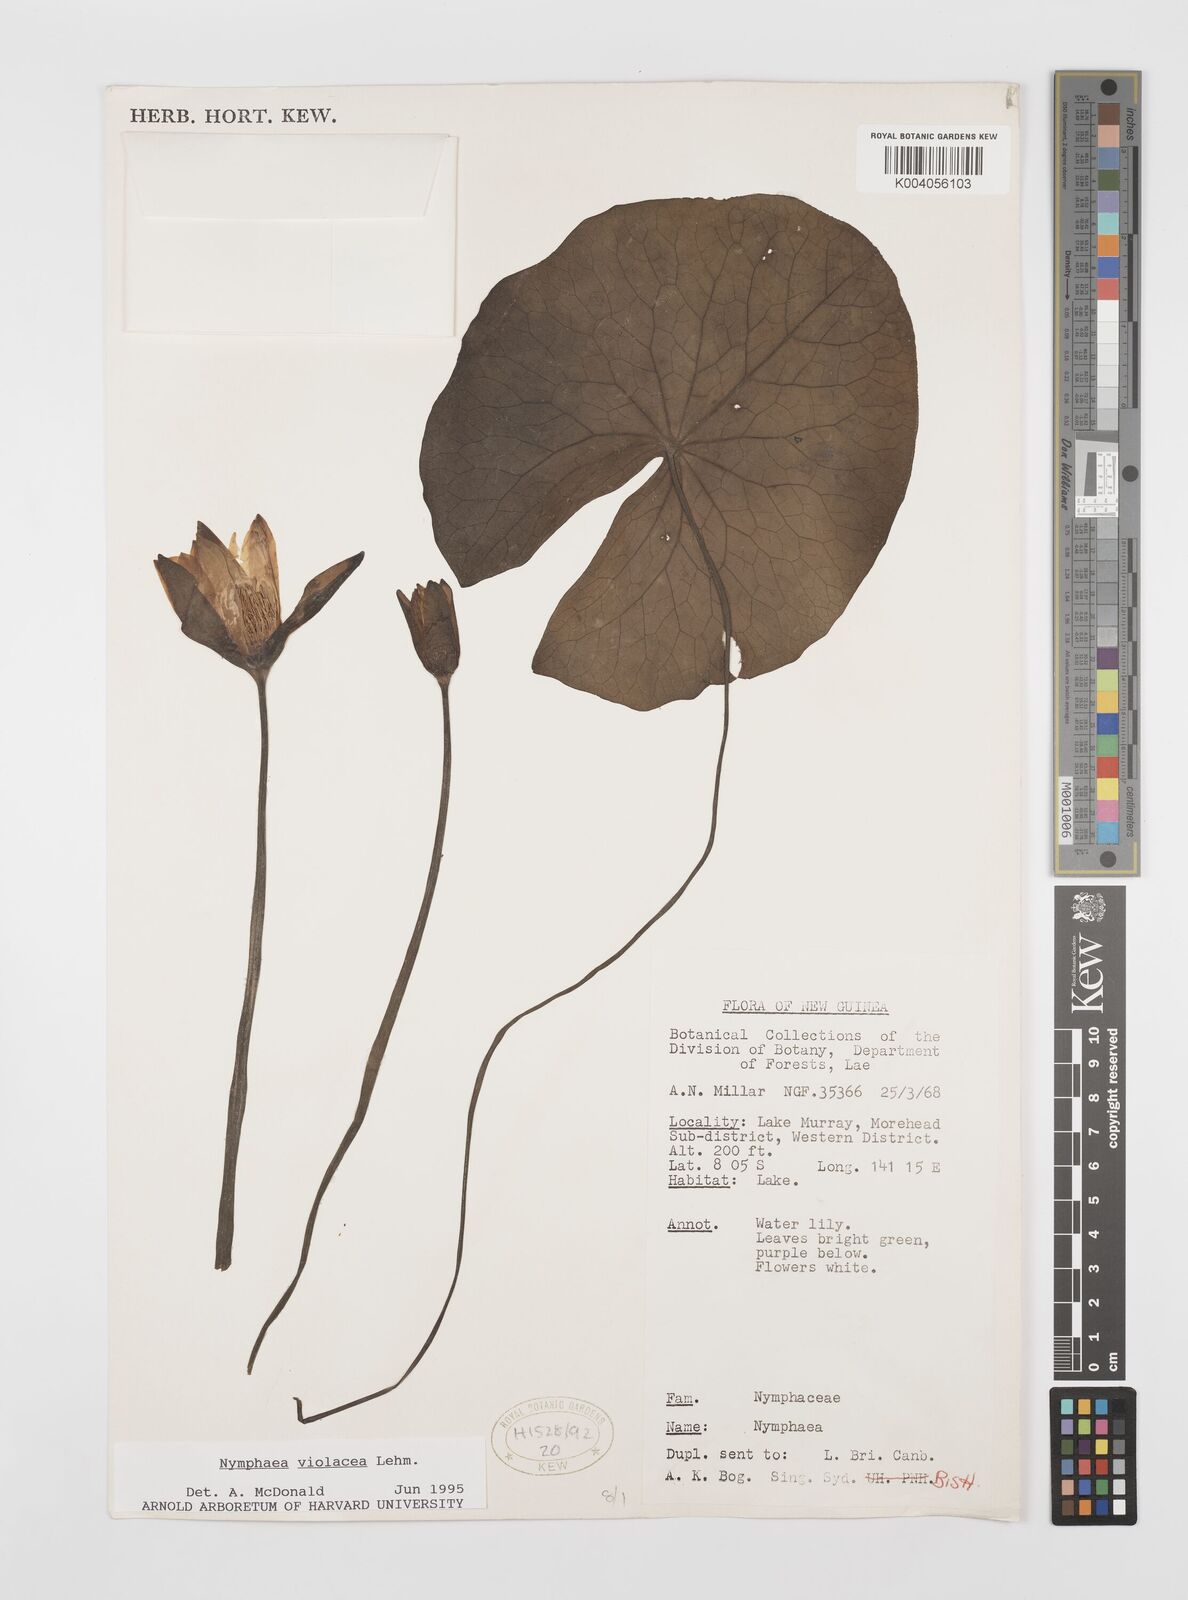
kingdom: Plantae
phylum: Tracheophyta
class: Magnoliopsida
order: Nymphaeales
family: Nymphaeaceae
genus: Nymphaea
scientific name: Nymphaea violacea
